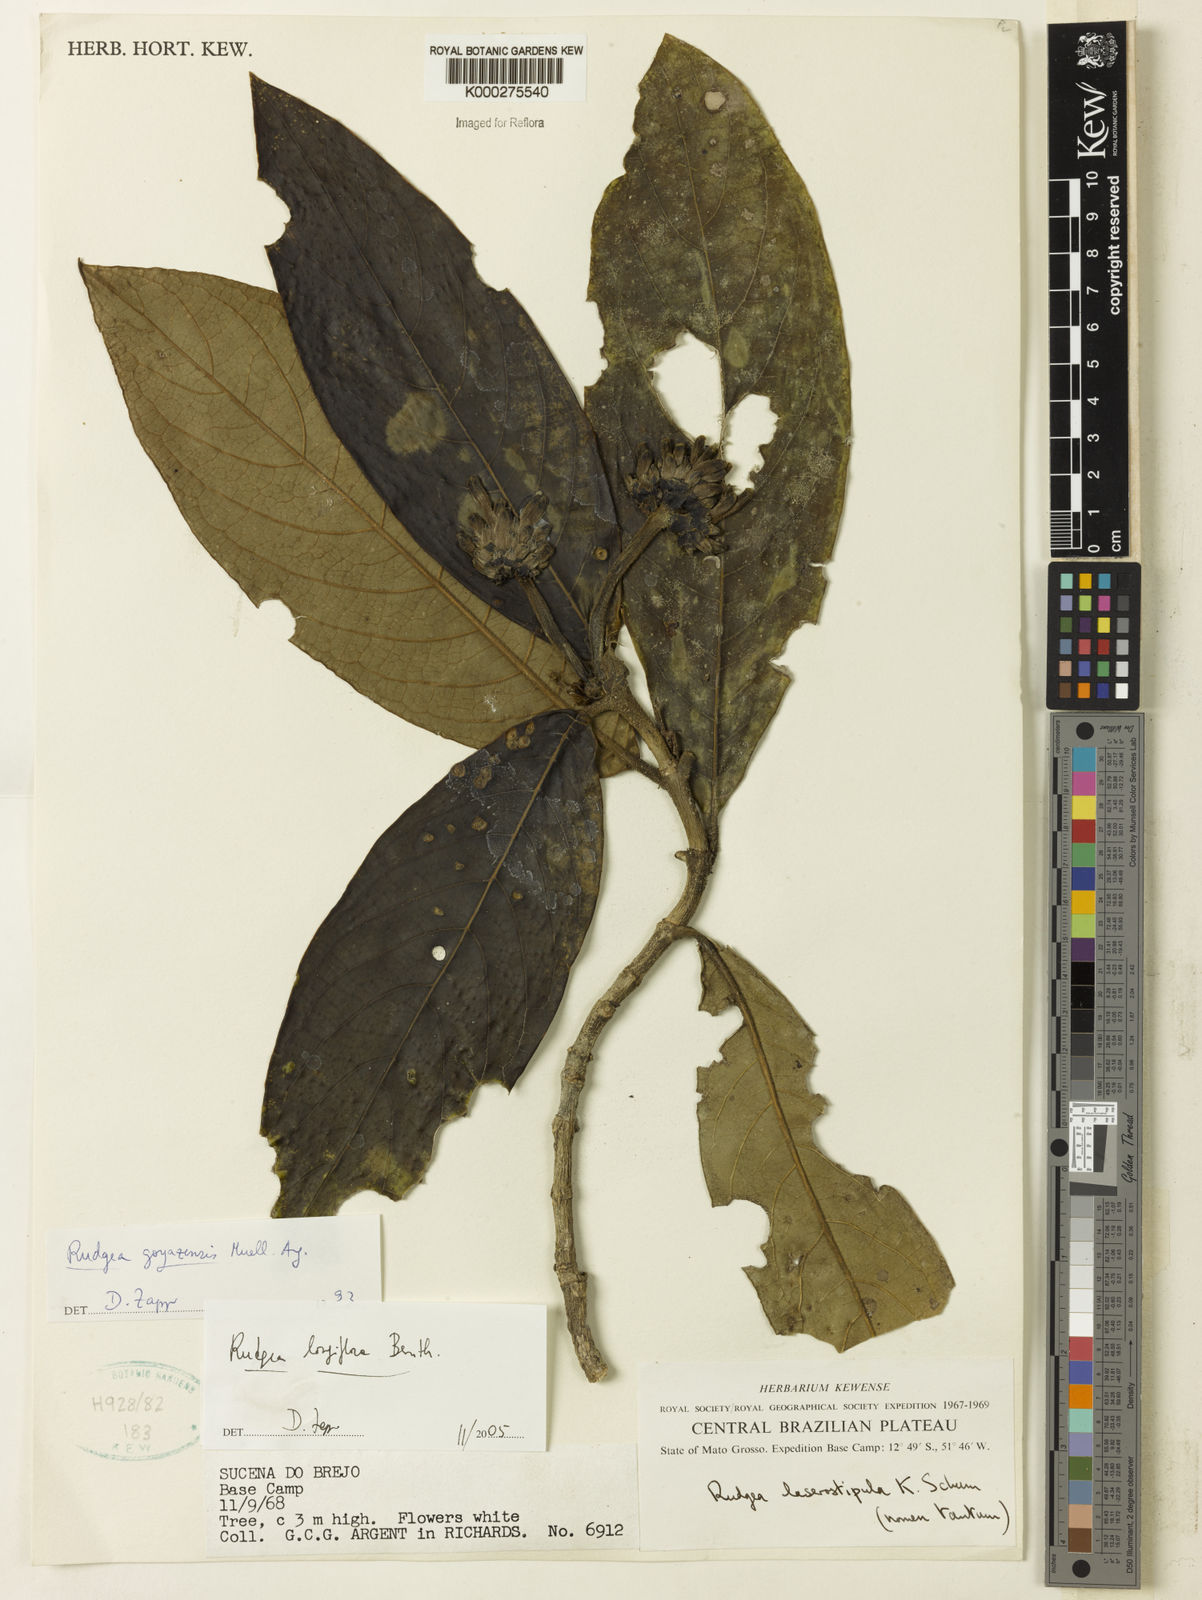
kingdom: Plantae
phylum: Tracheophyta
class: Magnoliopsida
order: Gentianales
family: Rubiaceae
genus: Rudgea
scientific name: Rudgea longiflora
